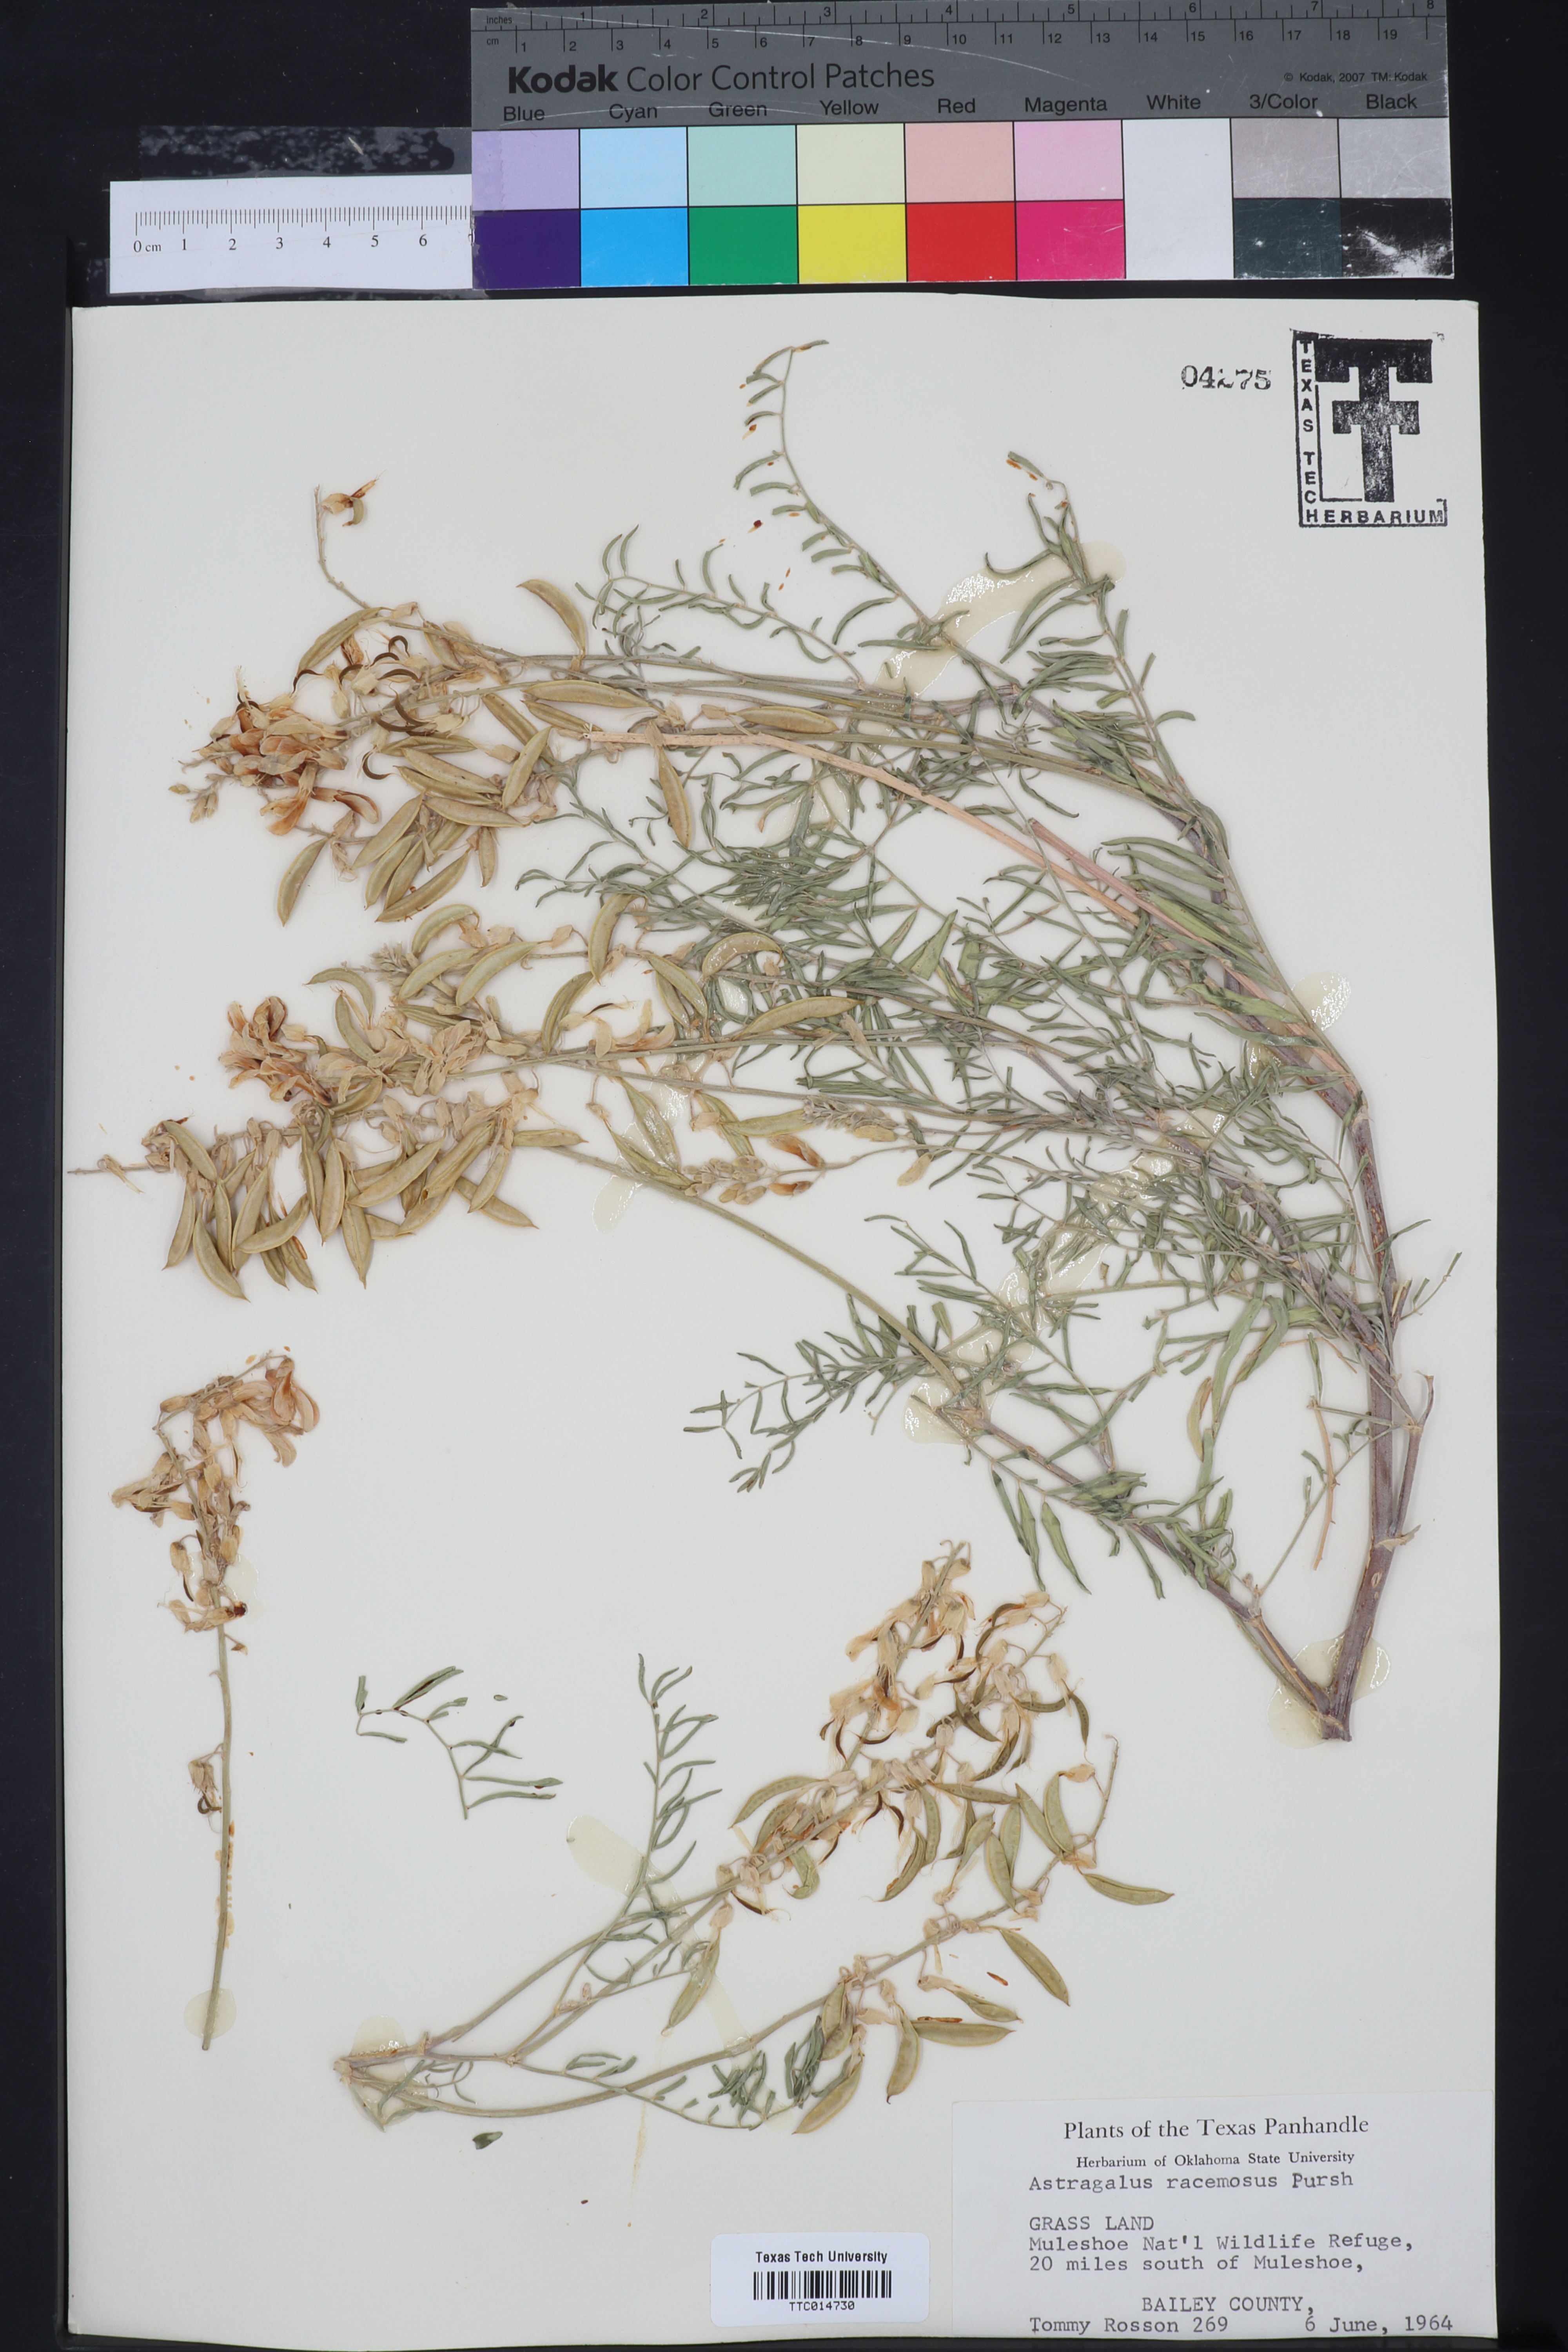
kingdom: Plantae
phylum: Tracheophyta
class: Magnoliopsida
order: Fabales
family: Fabaceae
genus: Astragalus
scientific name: Astragalus racemosus
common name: Alkali milk-vetch
